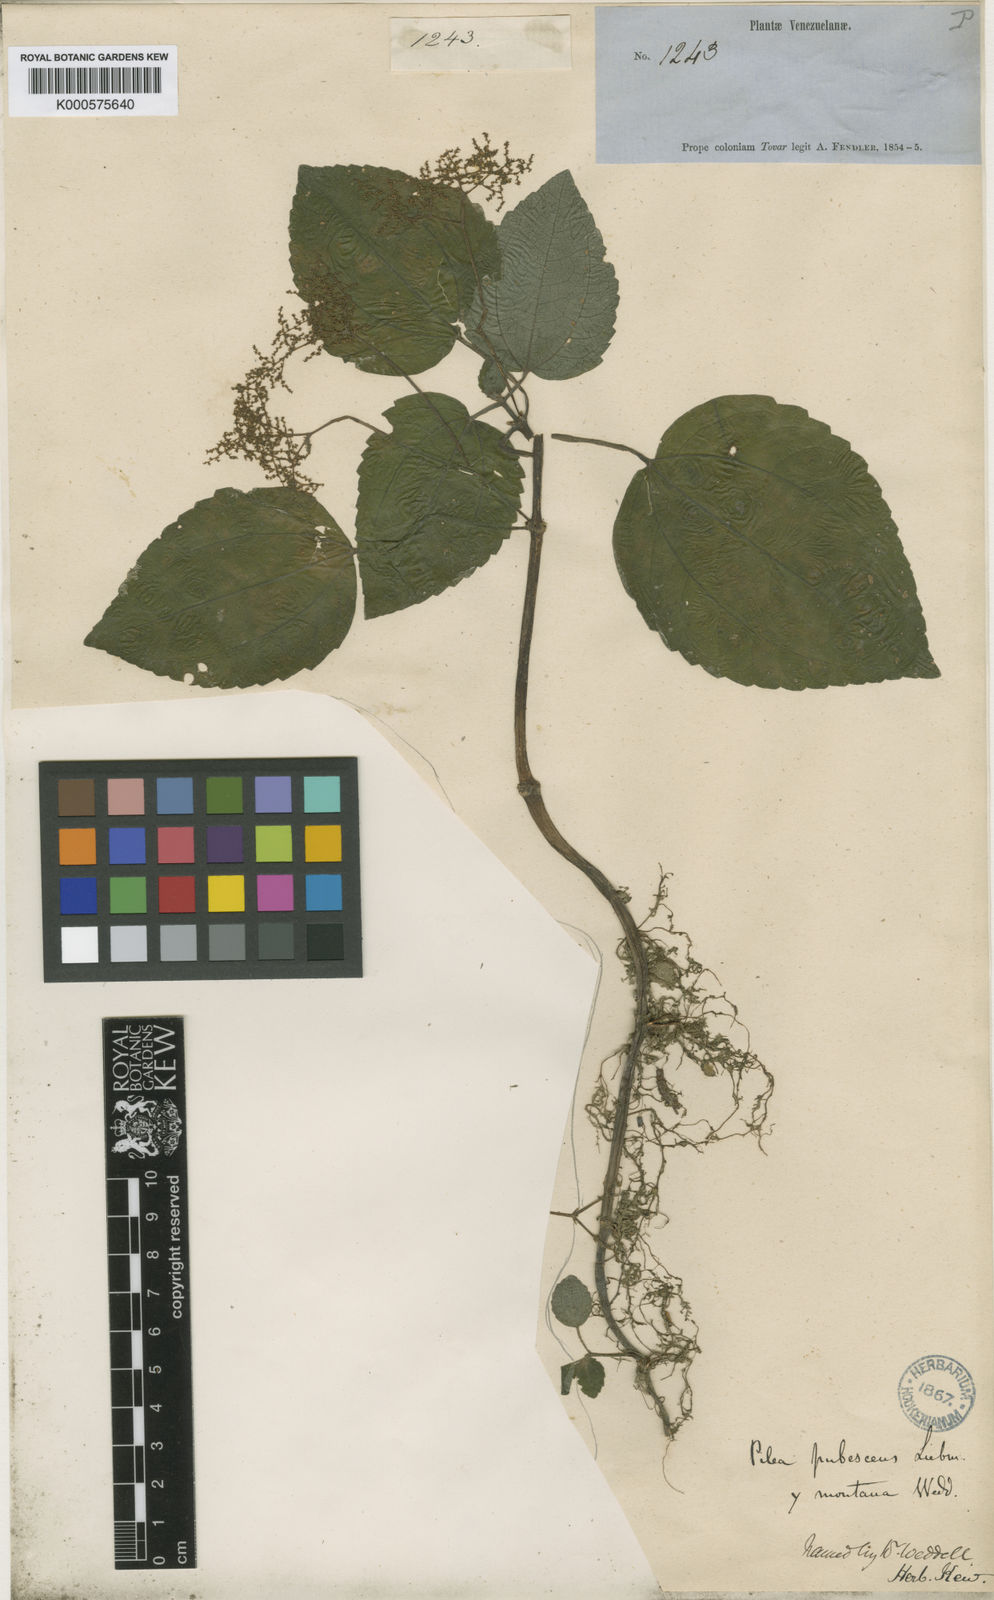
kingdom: Plantae
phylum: Tracheophyta
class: Magnoliopsida
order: Rosales
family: Urticaceae
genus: Pilea
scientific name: Pilea pubescens
